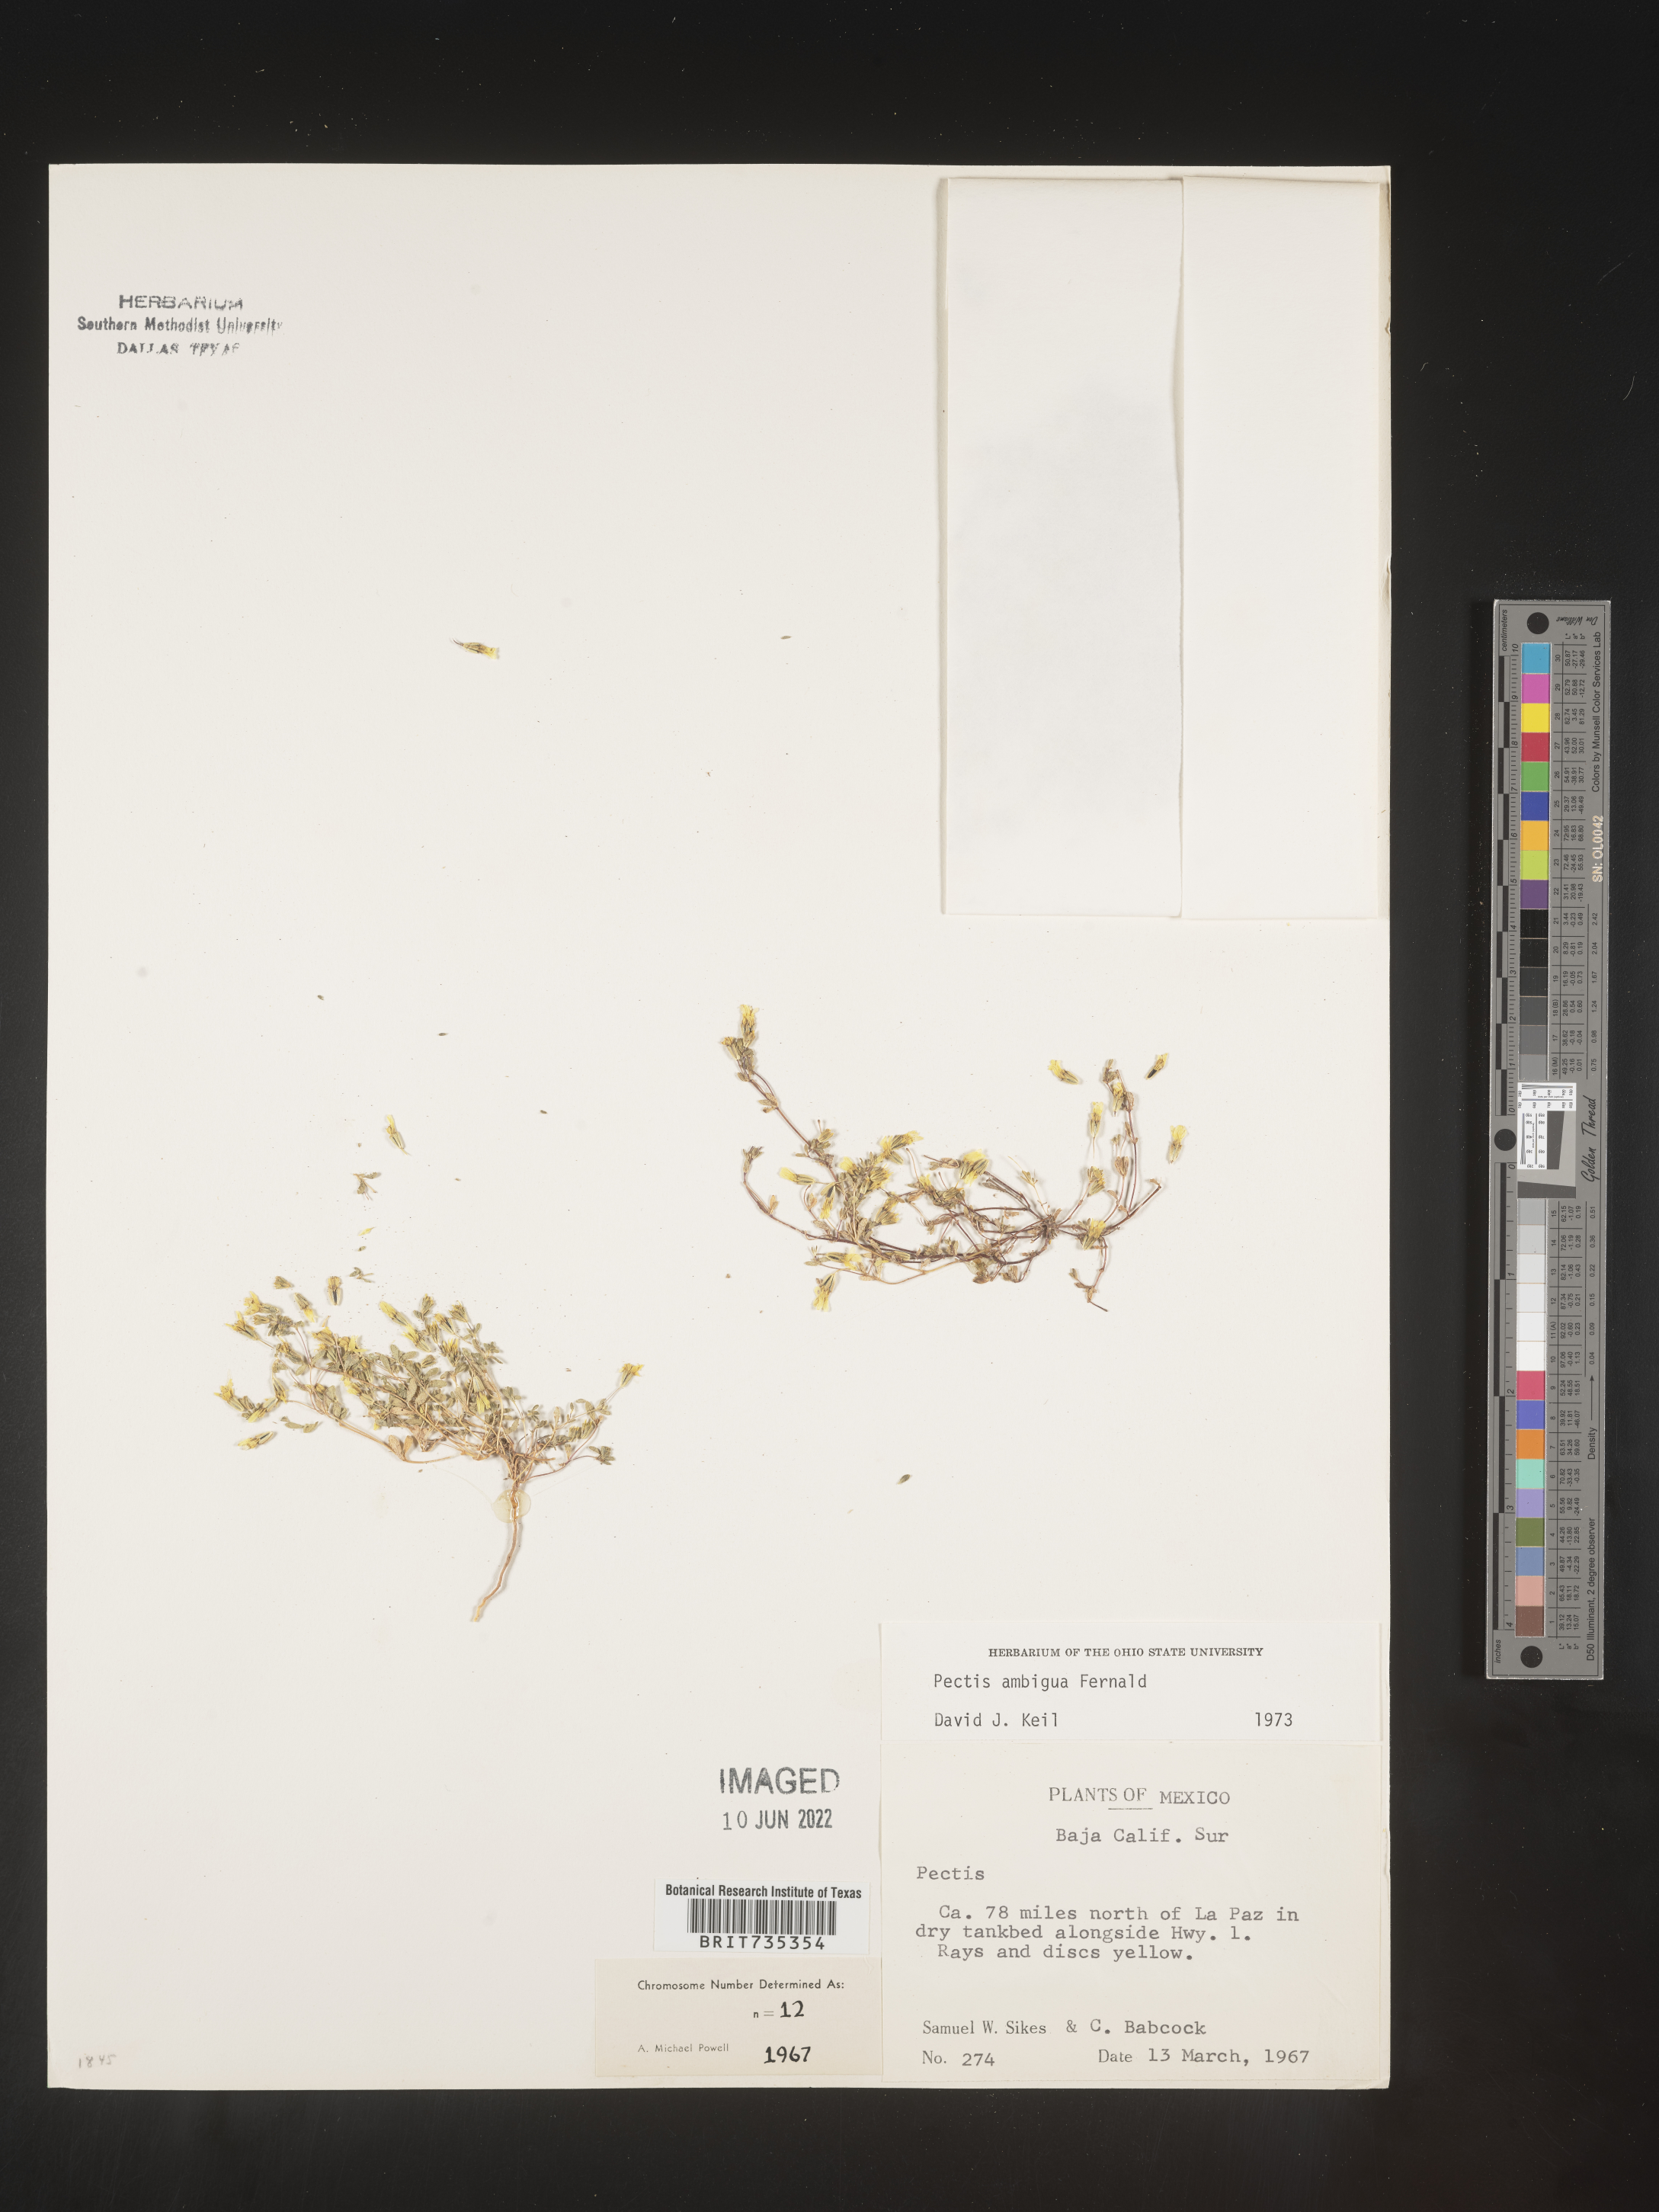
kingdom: Plantae
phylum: Tracheophyta
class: Magnoliopsida
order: Asterales
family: Asteraceae
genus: Pectis
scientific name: Pectis
